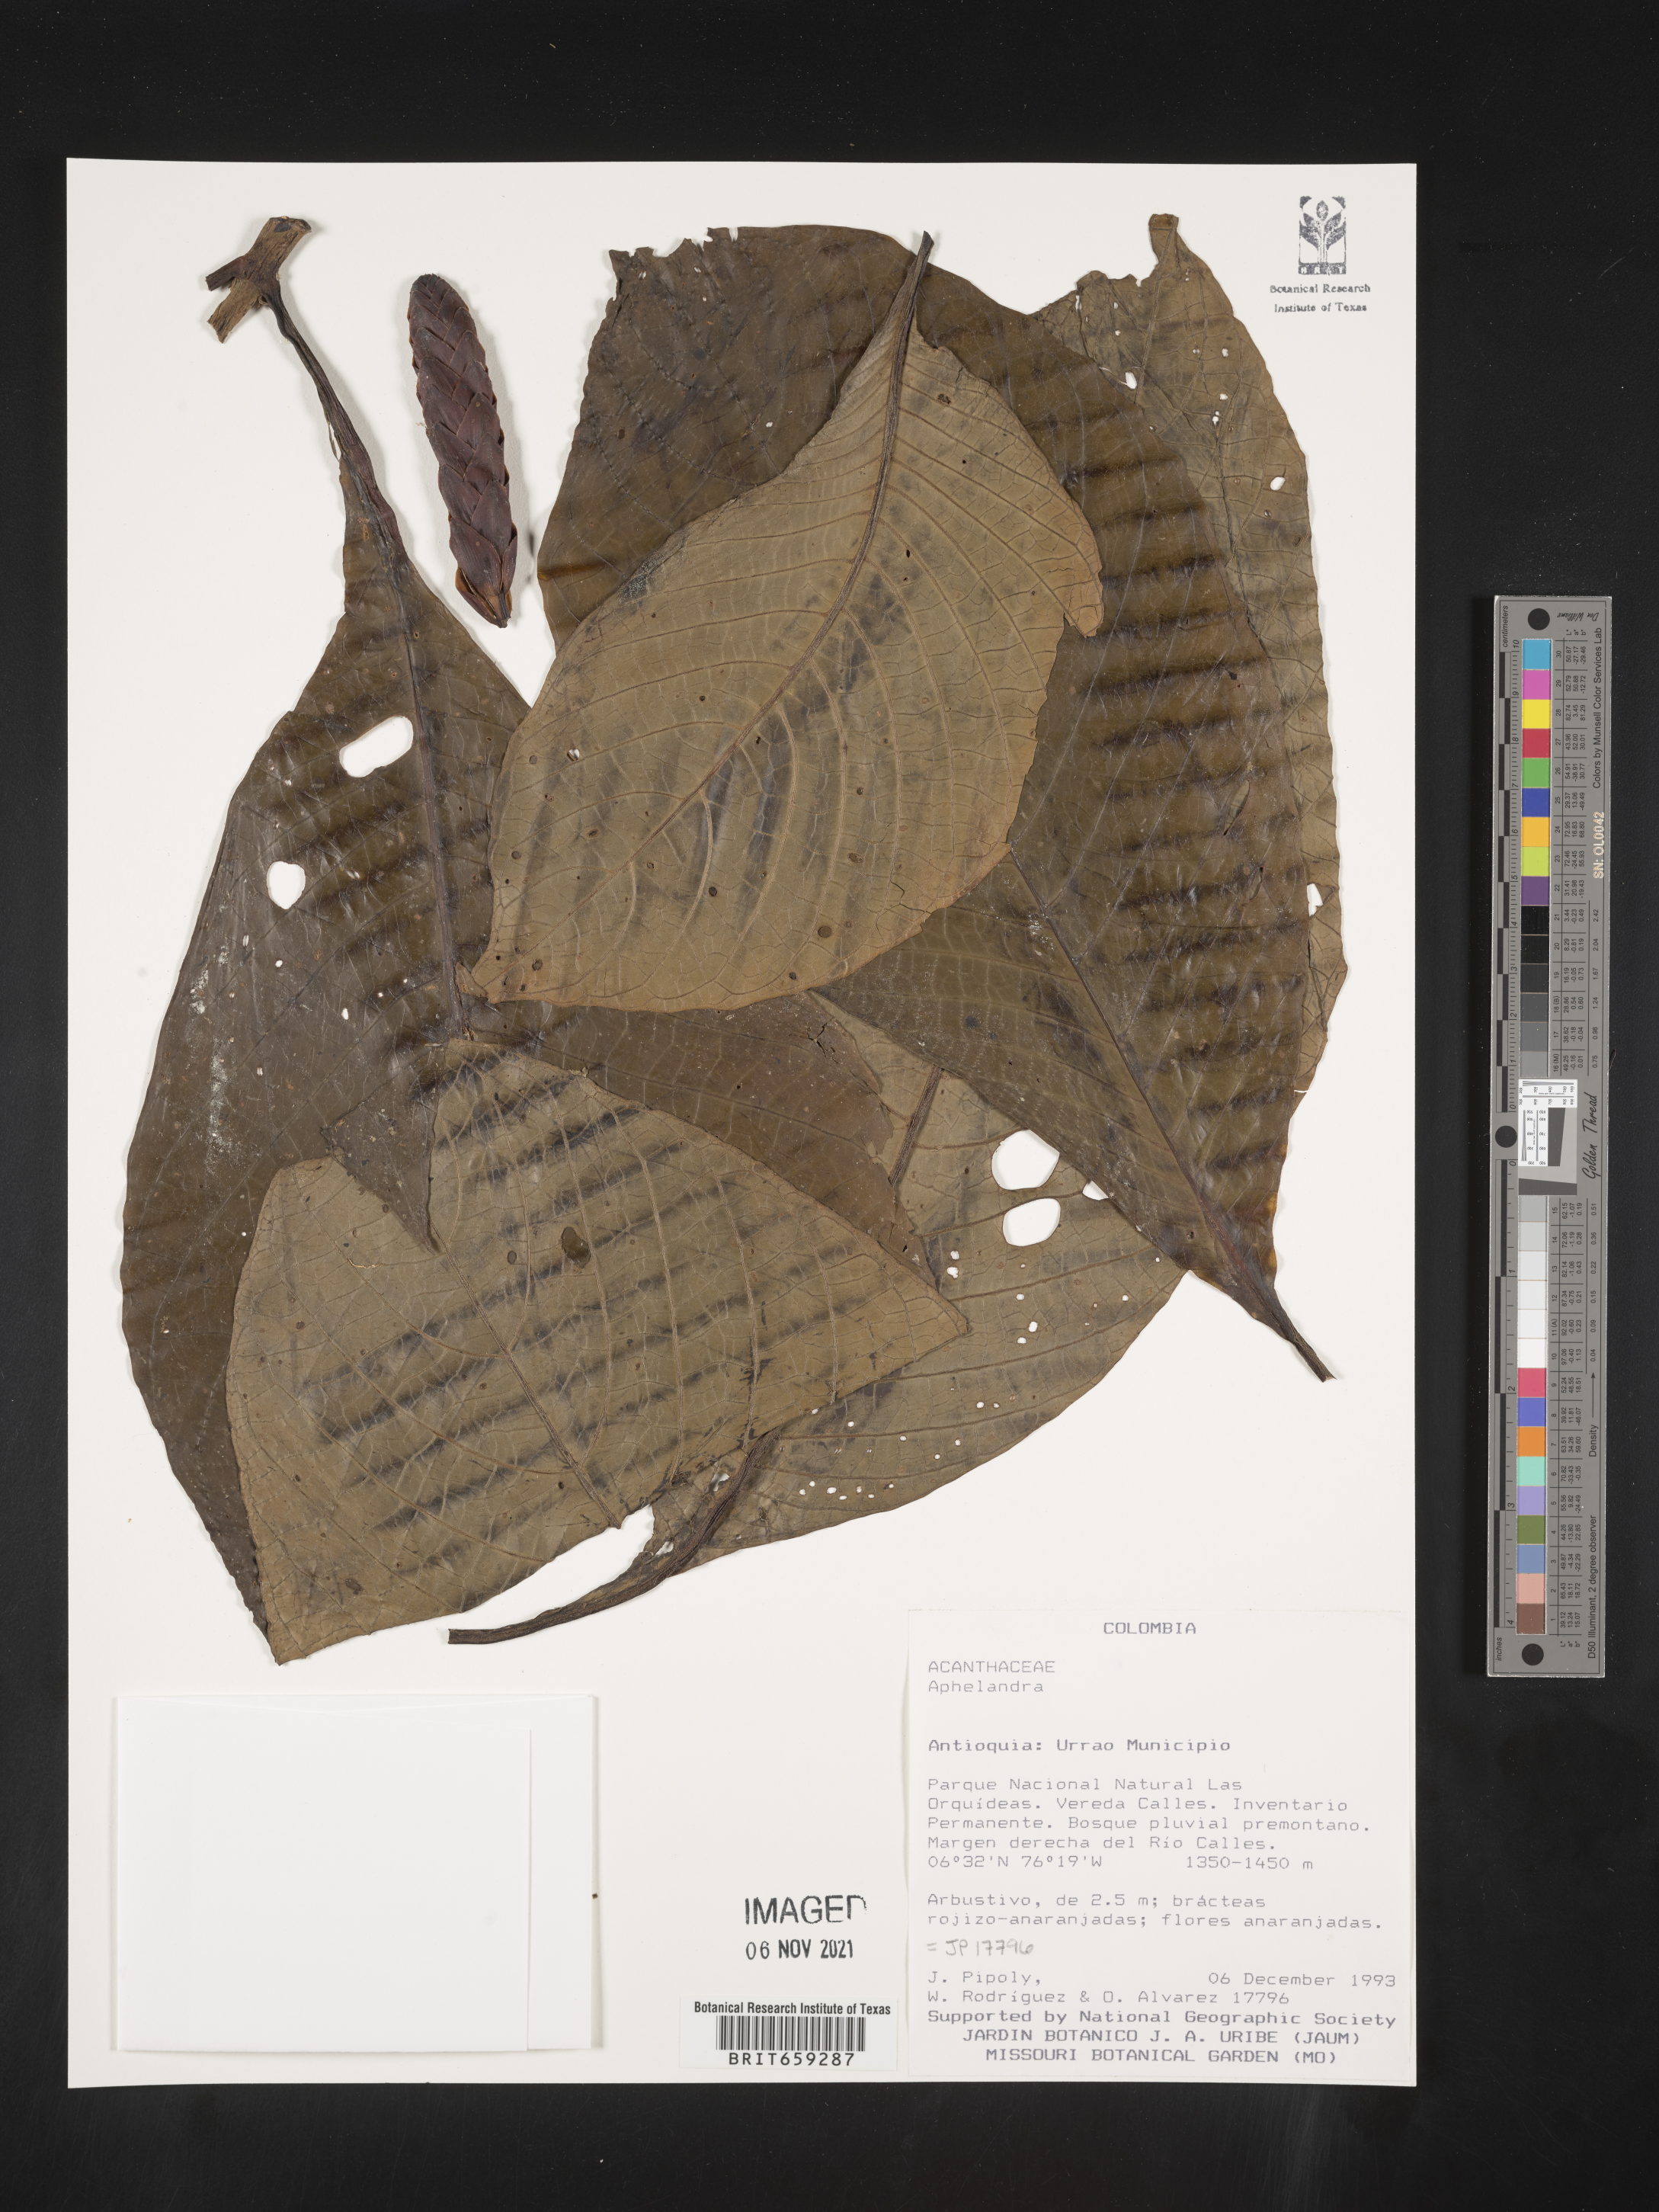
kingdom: Plantae
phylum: Tracheophyta
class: Magnoliopsida
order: Lamiales
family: Acanthaceae
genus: Aphelandra
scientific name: Aphelandra
